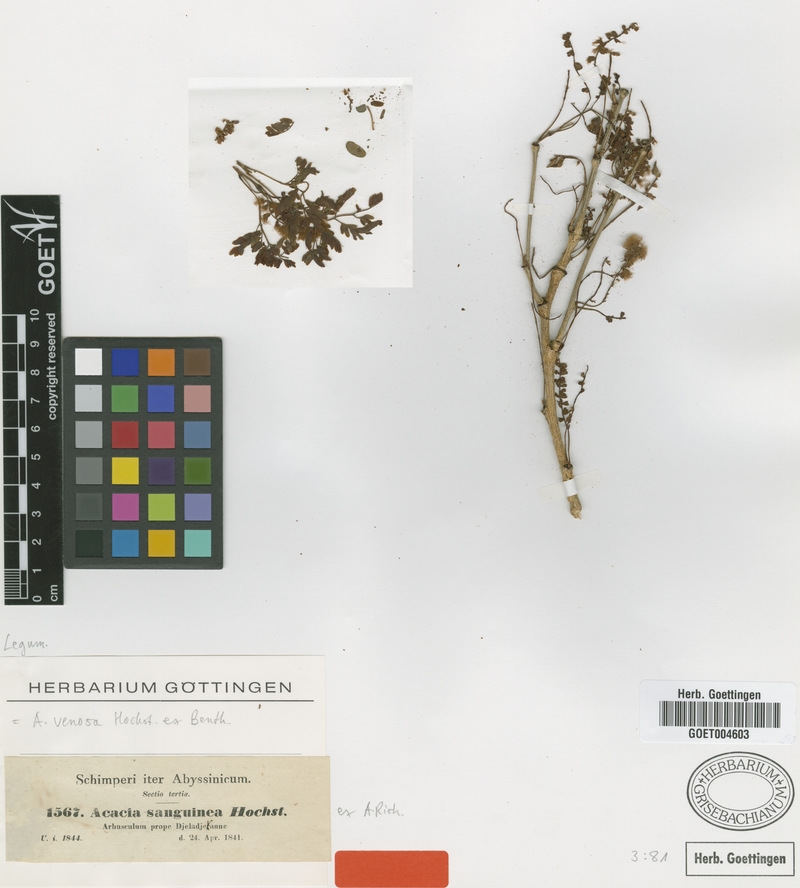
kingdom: Plantae
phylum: Tracheophyta
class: Magnoliopsida
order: Fabales
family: Fabaceae
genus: Senegalia
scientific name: Senegalia venosa
